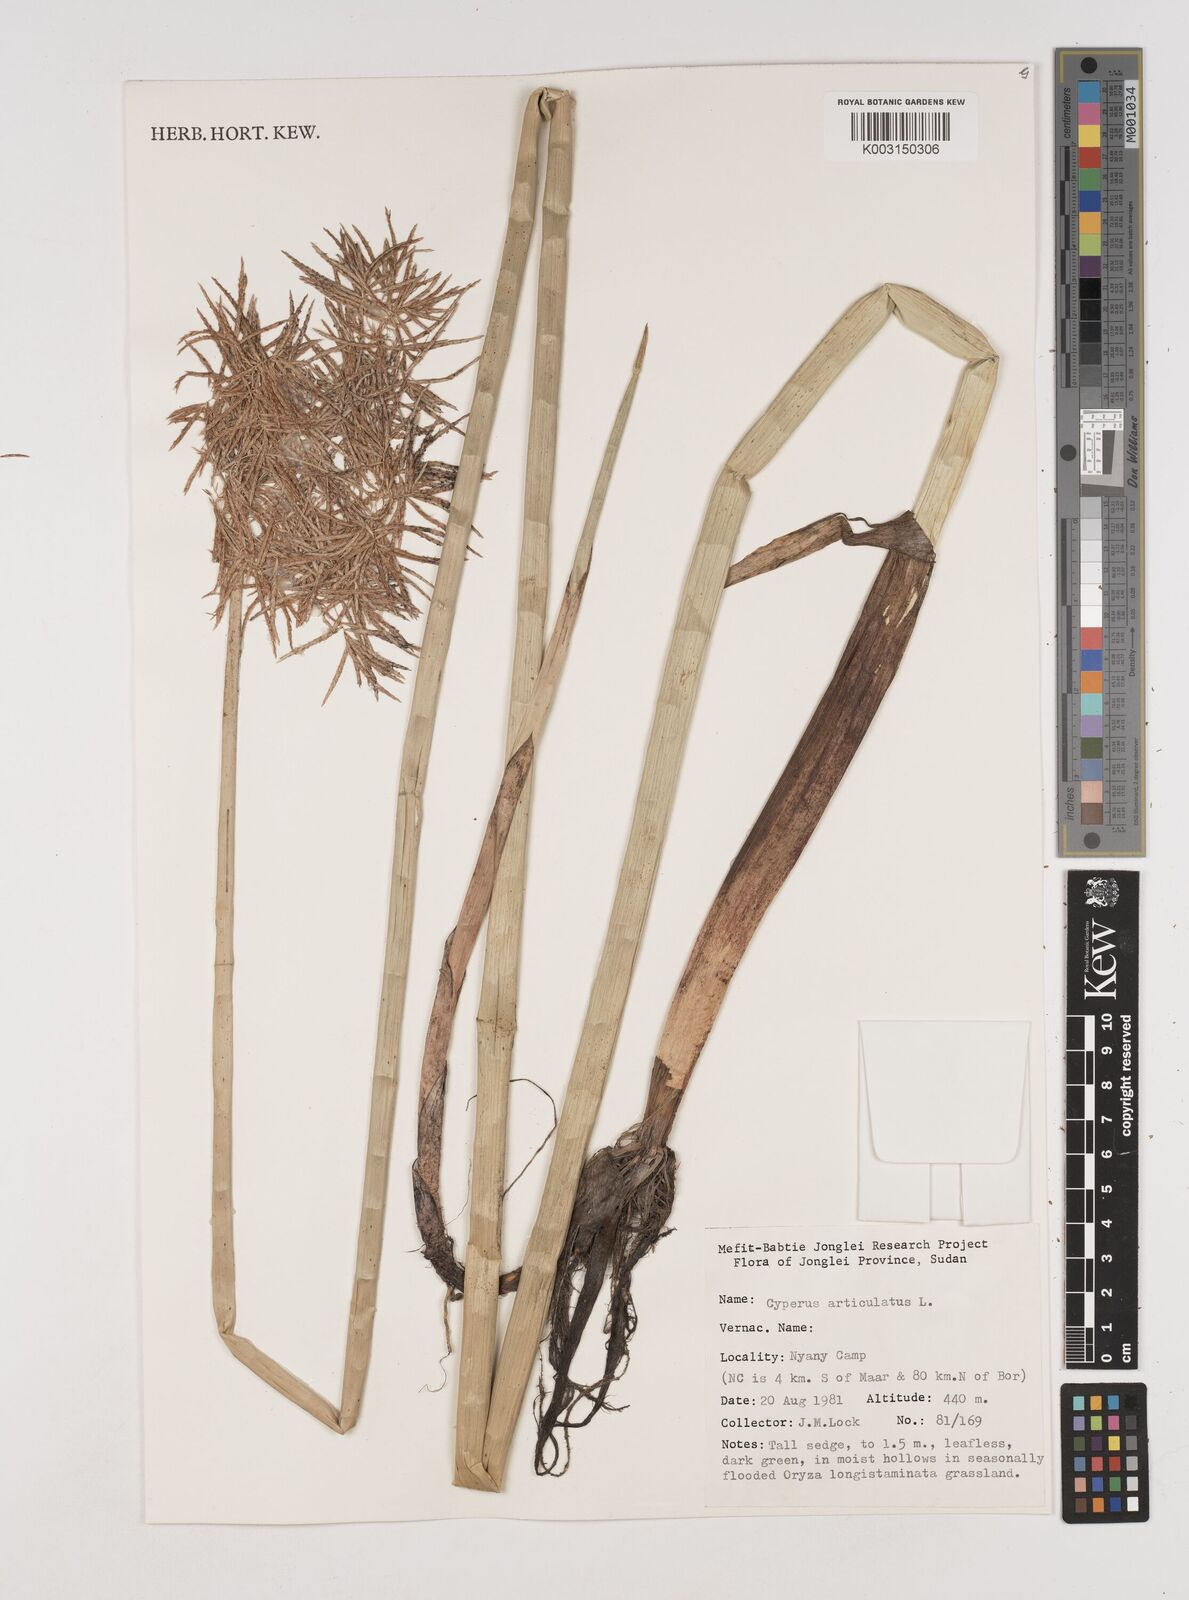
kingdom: Plantae
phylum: Tracheophyta
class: Liliopsida
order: Poales
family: Cyperaceae
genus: Cyperus
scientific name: Cyperus articulatus
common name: Jointed flatsedge
